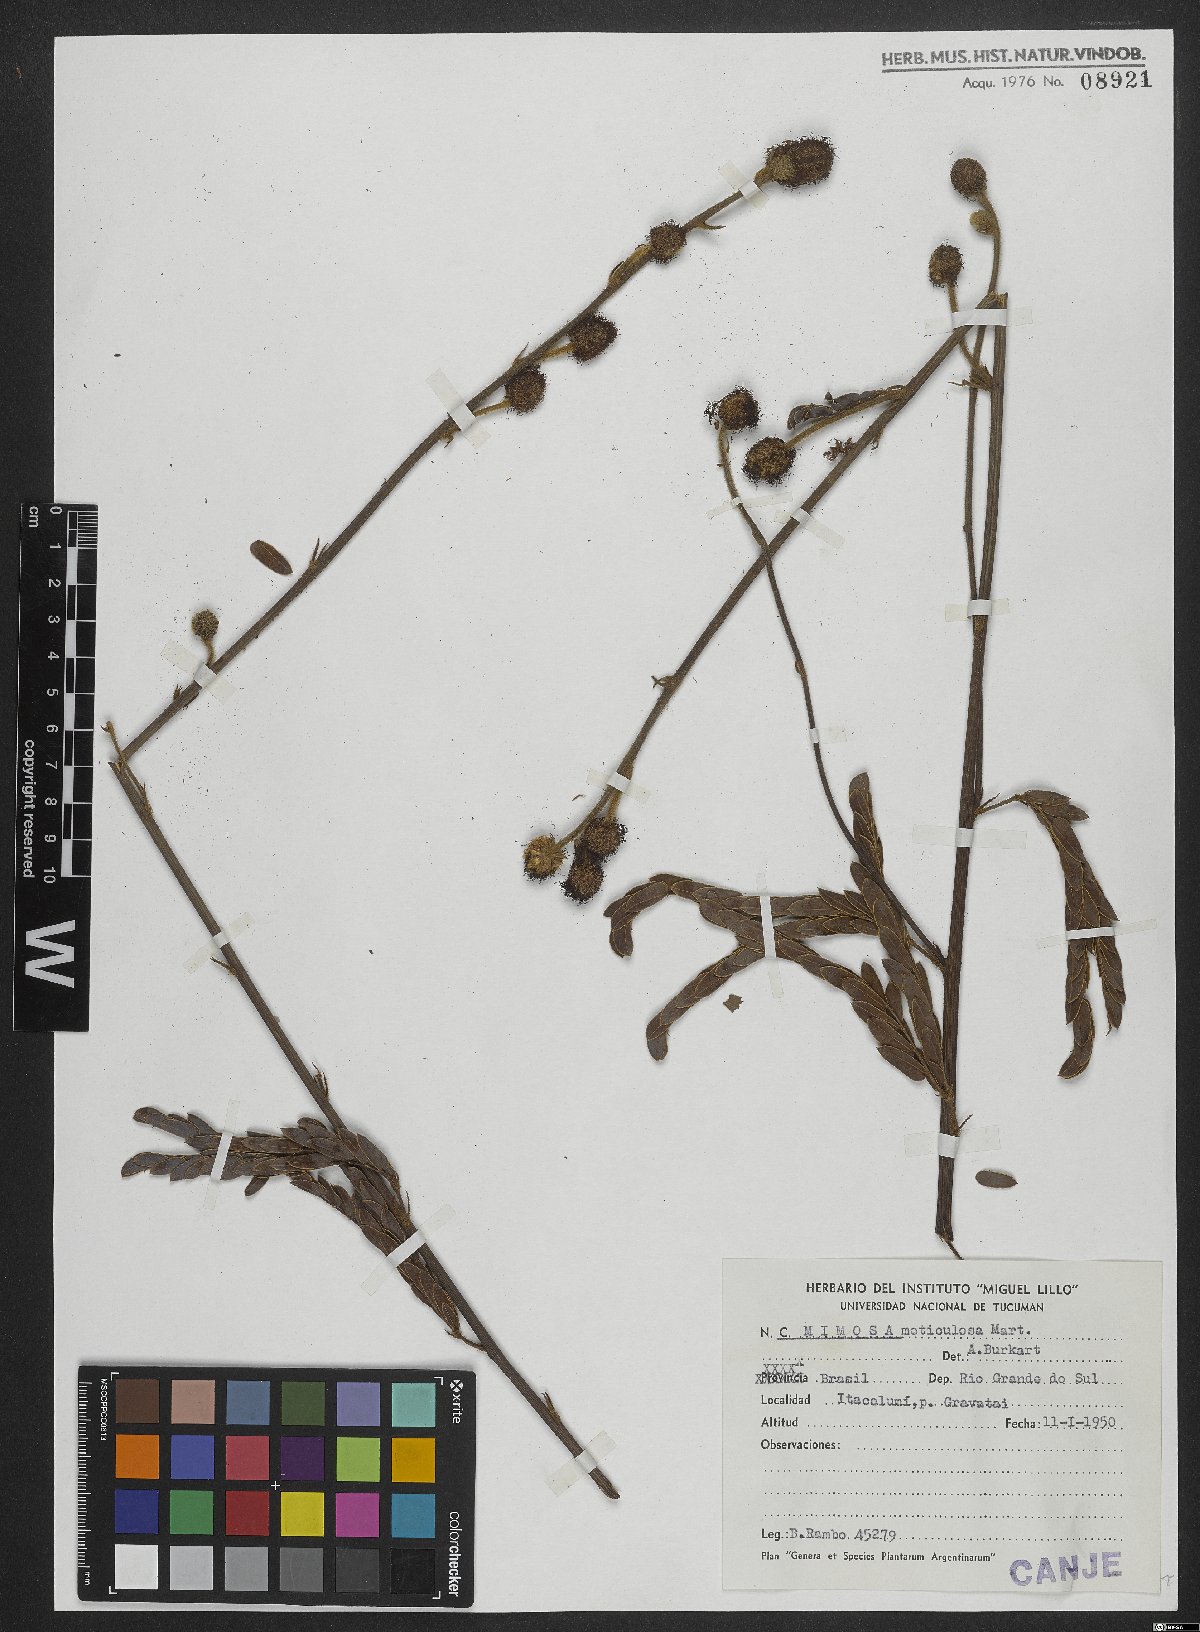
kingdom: Plantae
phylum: Tracheophyta
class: Magnoliopsida
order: Fabales
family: Fabaceae
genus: Mimosa
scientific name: Mimosa dolens
